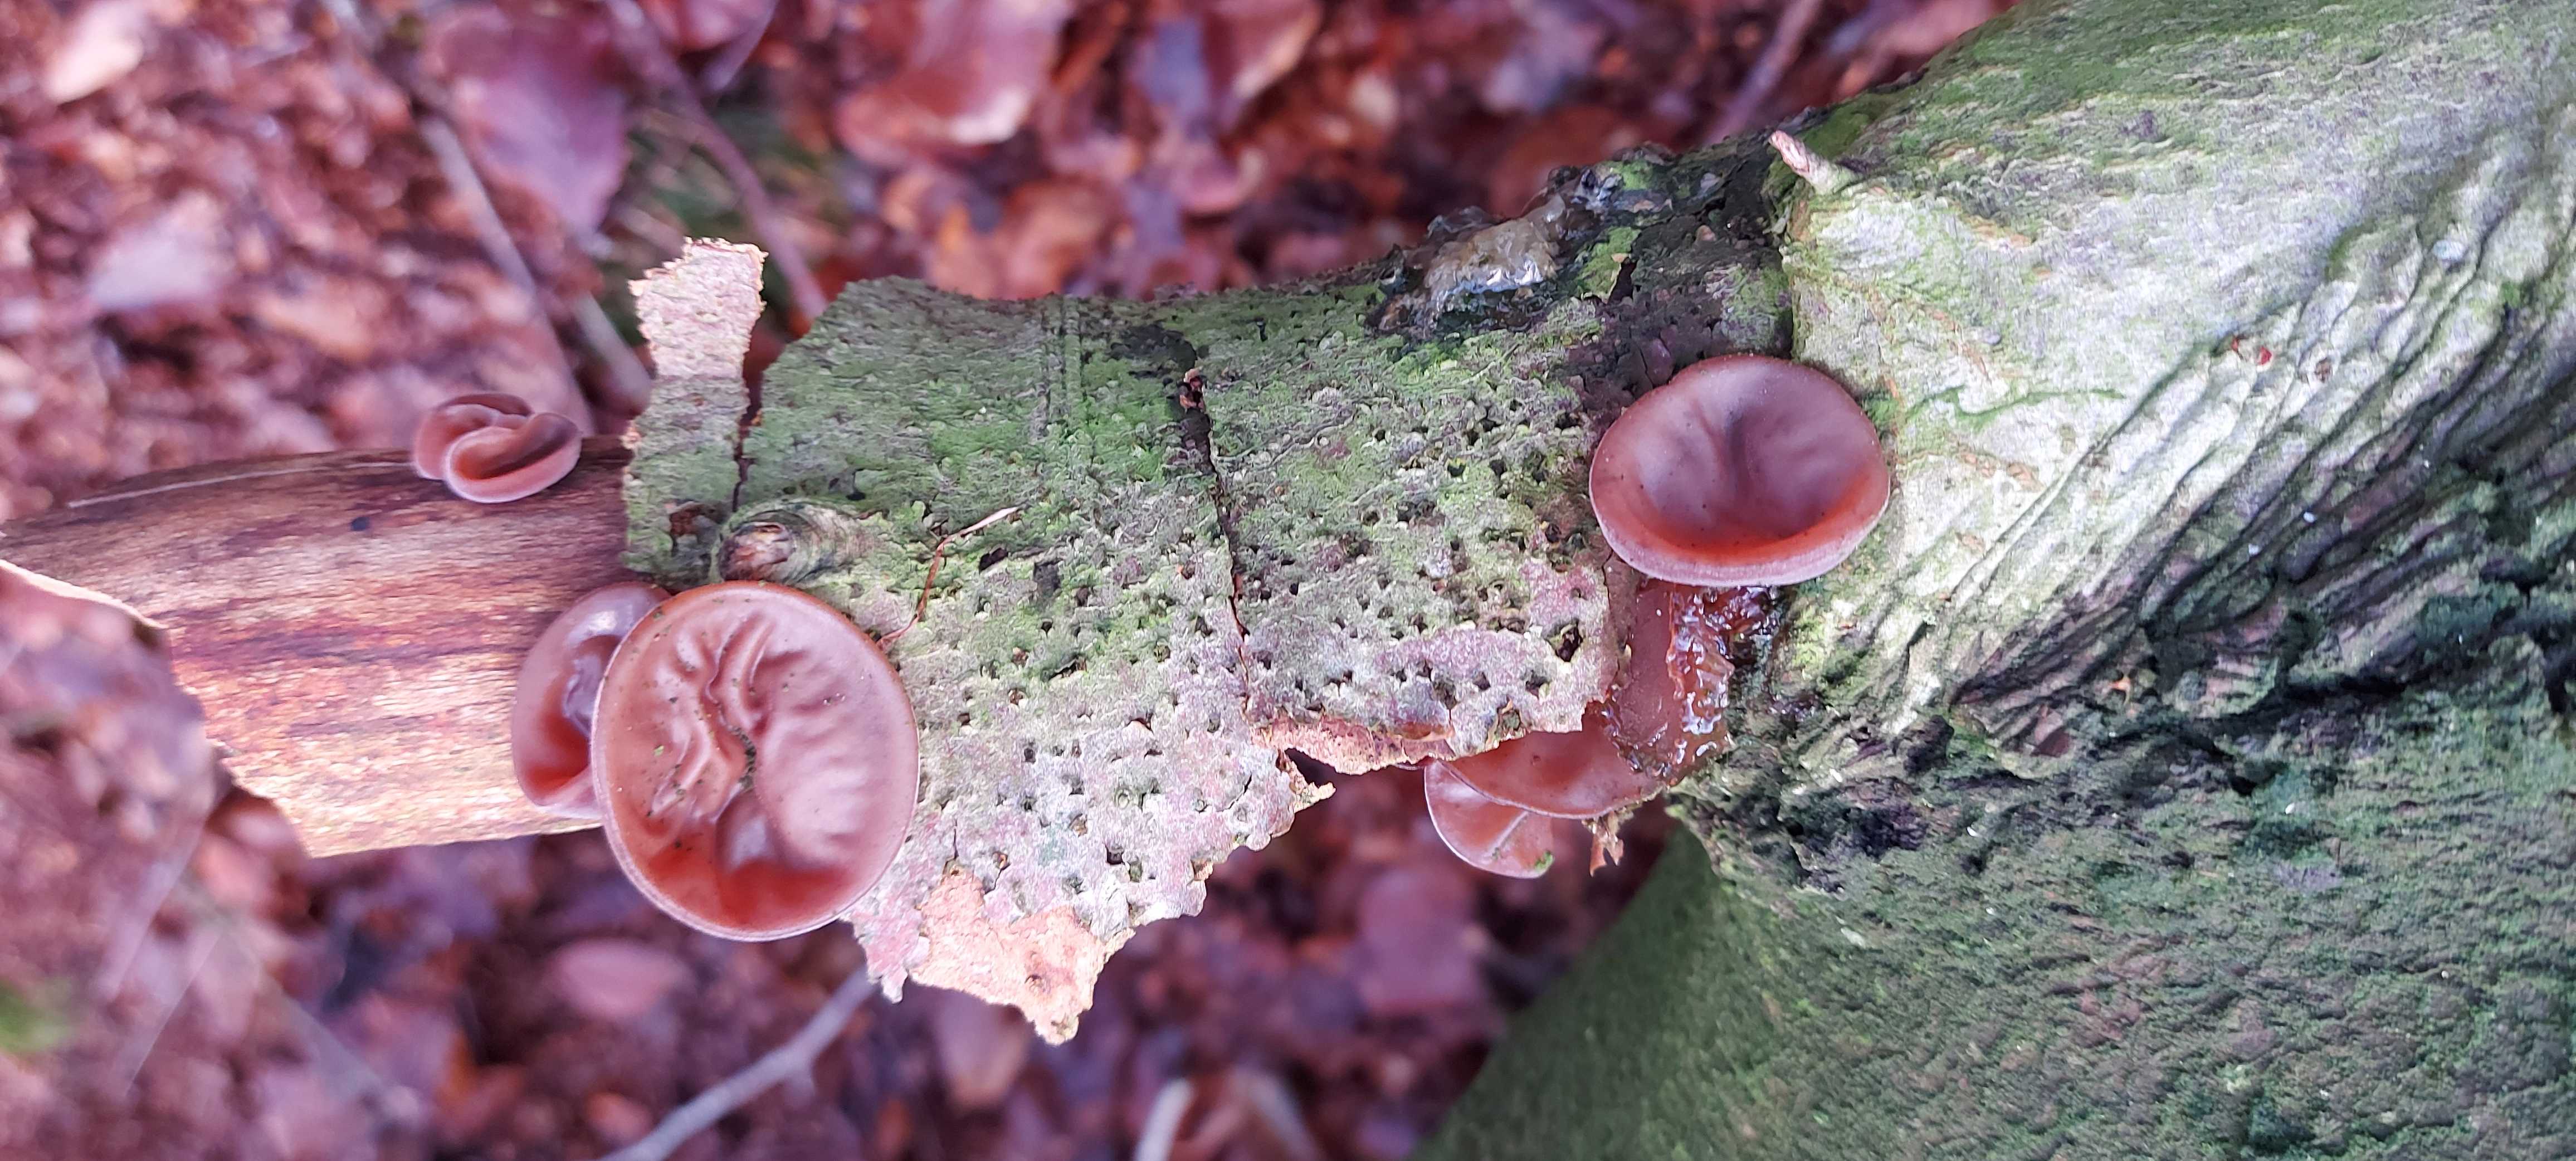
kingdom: Fungi
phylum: Basidiomycota
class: Agaricomycetes
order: Auriculariales
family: Auriculariaceae
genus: Auricularia
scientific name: Auricularia auricula-judae
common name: almindelig judasøre
